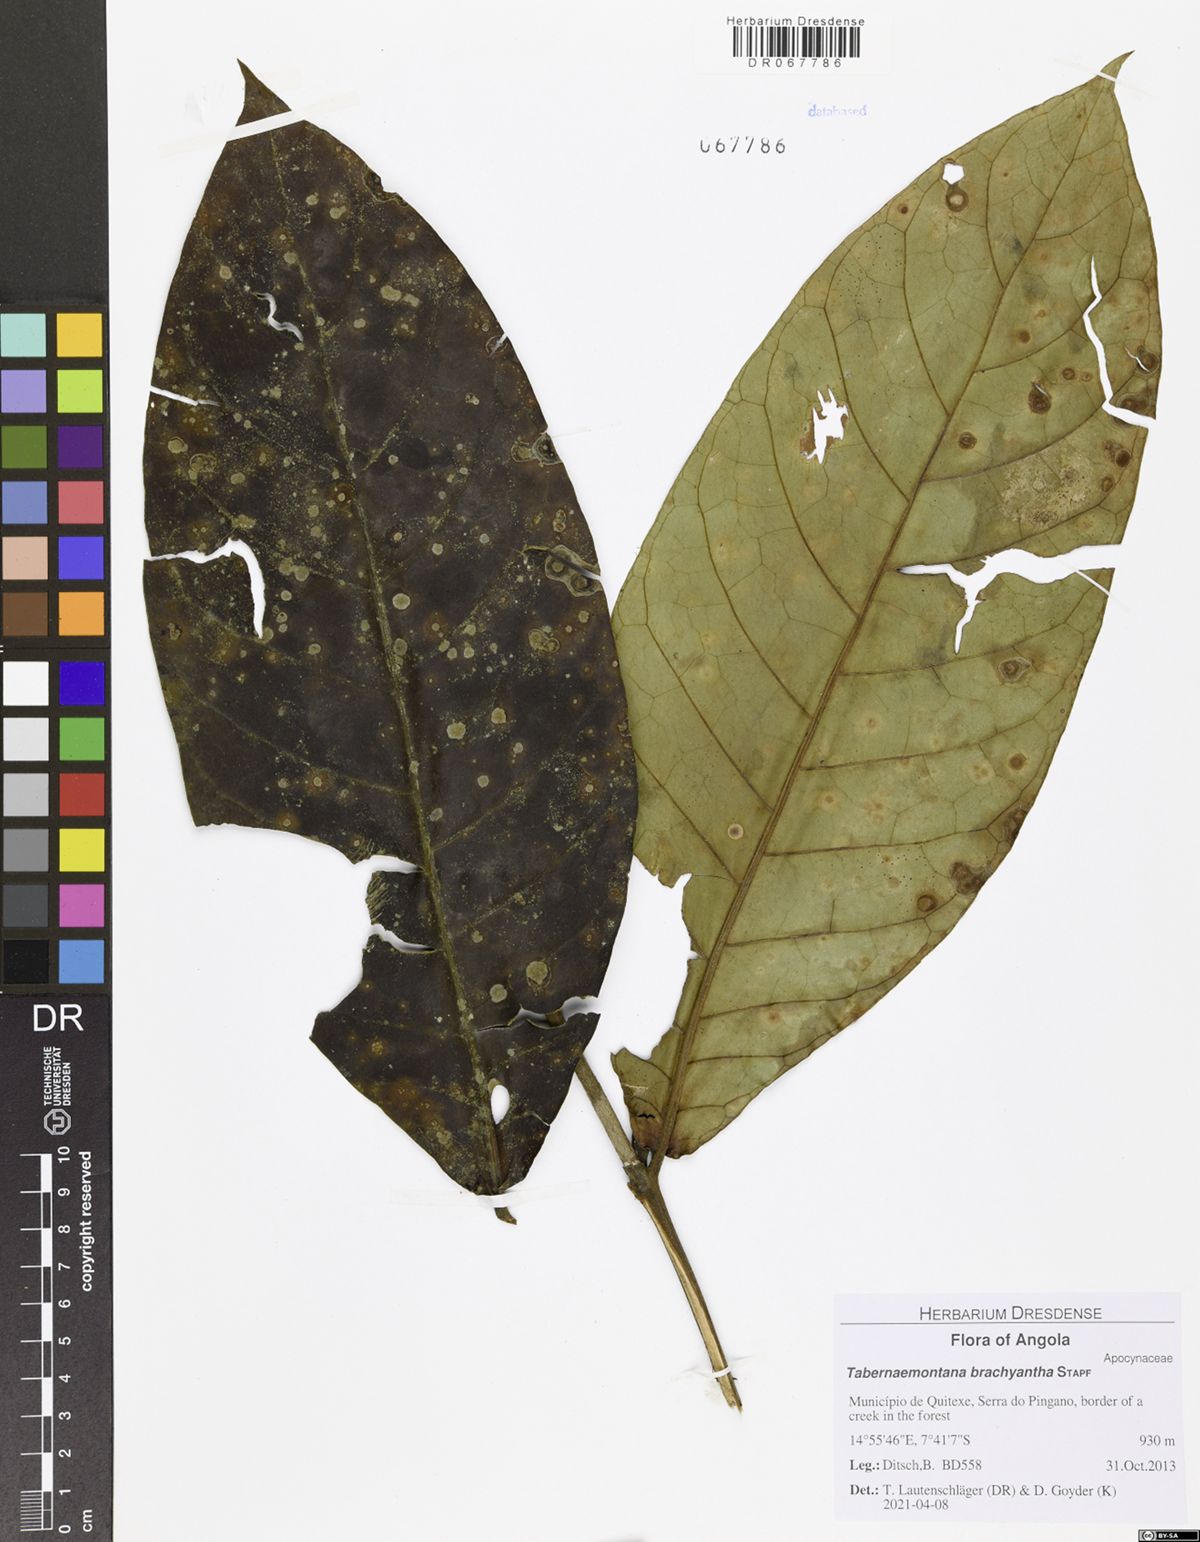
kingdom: Plantae
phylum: Tracheophyta
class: Magnoliopsida
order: Gentianales
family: Apocynaceae
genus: Tabernaemontana
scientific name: Tabernaemontana brachyantha
